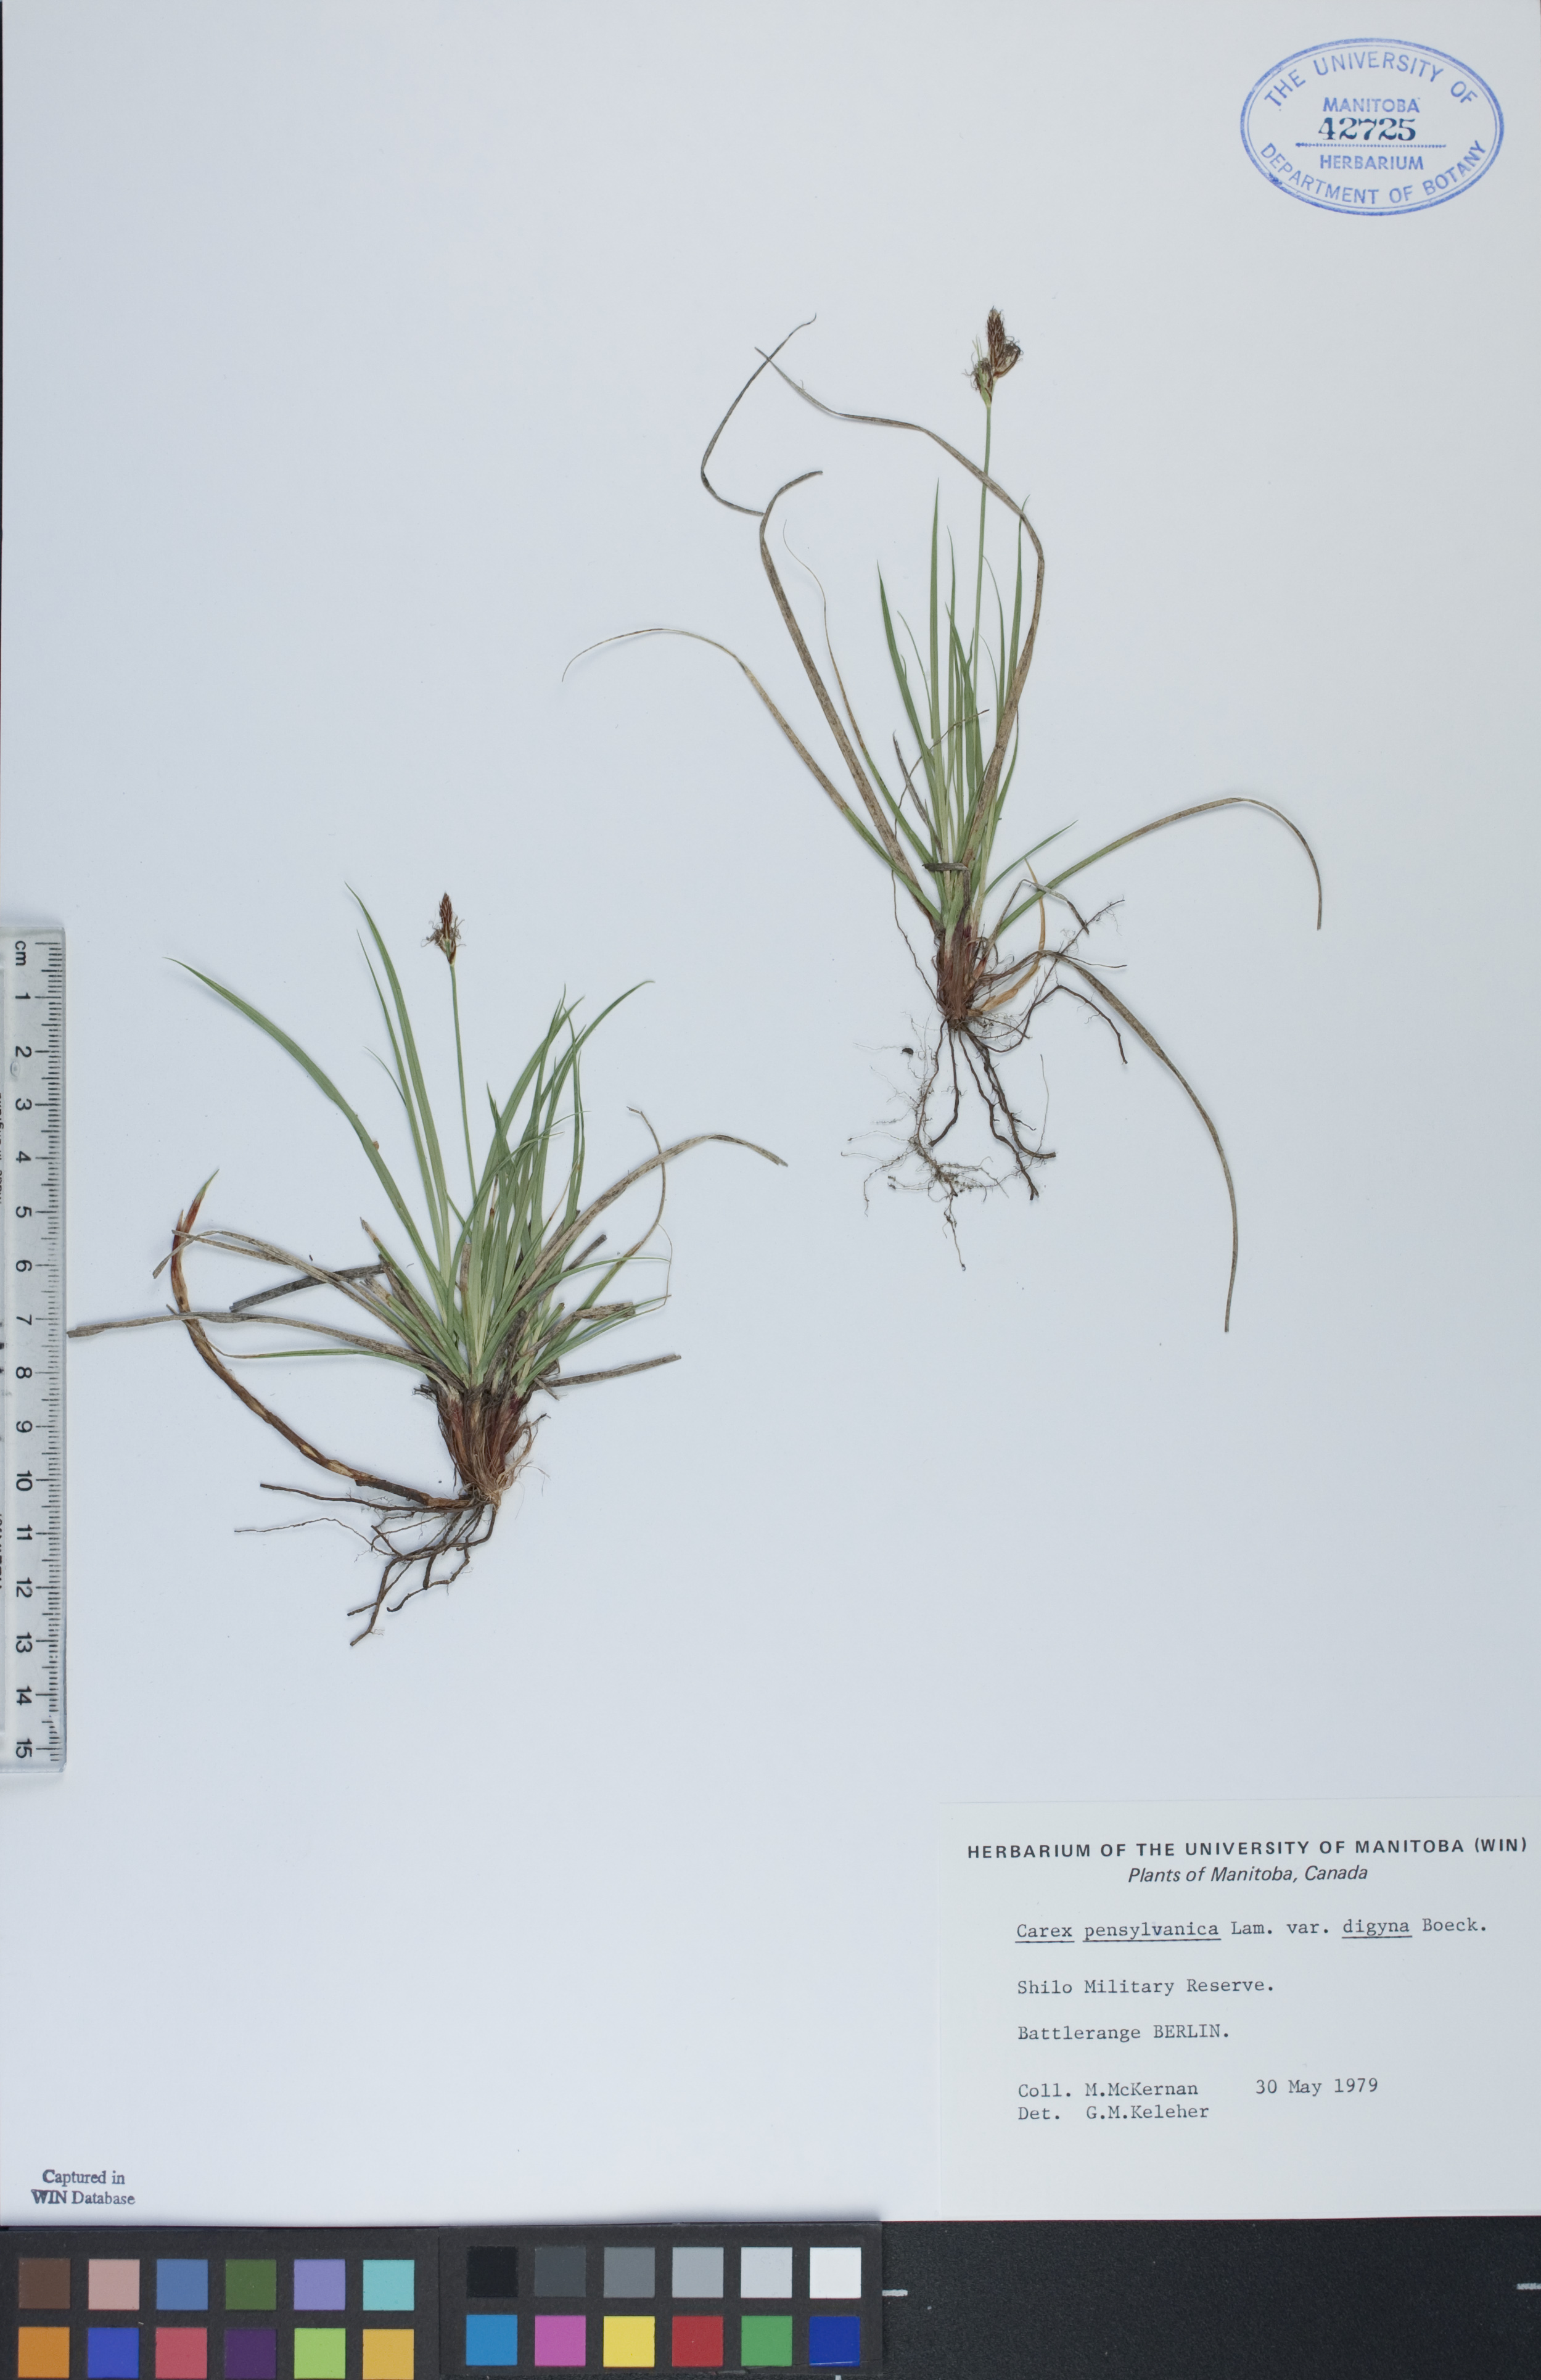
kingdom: Plantae
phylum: Tracheophyta
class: Liliopsida
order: Poales
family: Cyperaceae
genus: Carex
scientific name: Carex inops
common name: Long-stolon sedge
